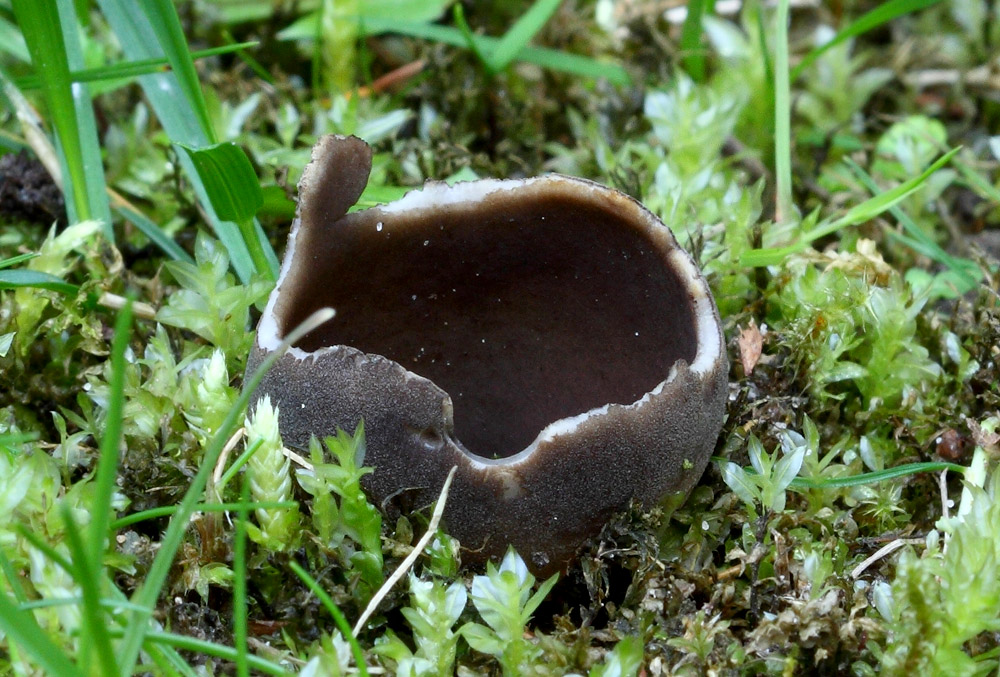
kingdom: Fungi
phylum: Ascomycota
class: Pezizomycetes
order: Pezizales
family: Helvellaceae
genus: Dissingia
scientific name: Dissingia leucomelaena
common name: sorthvid foldhat
